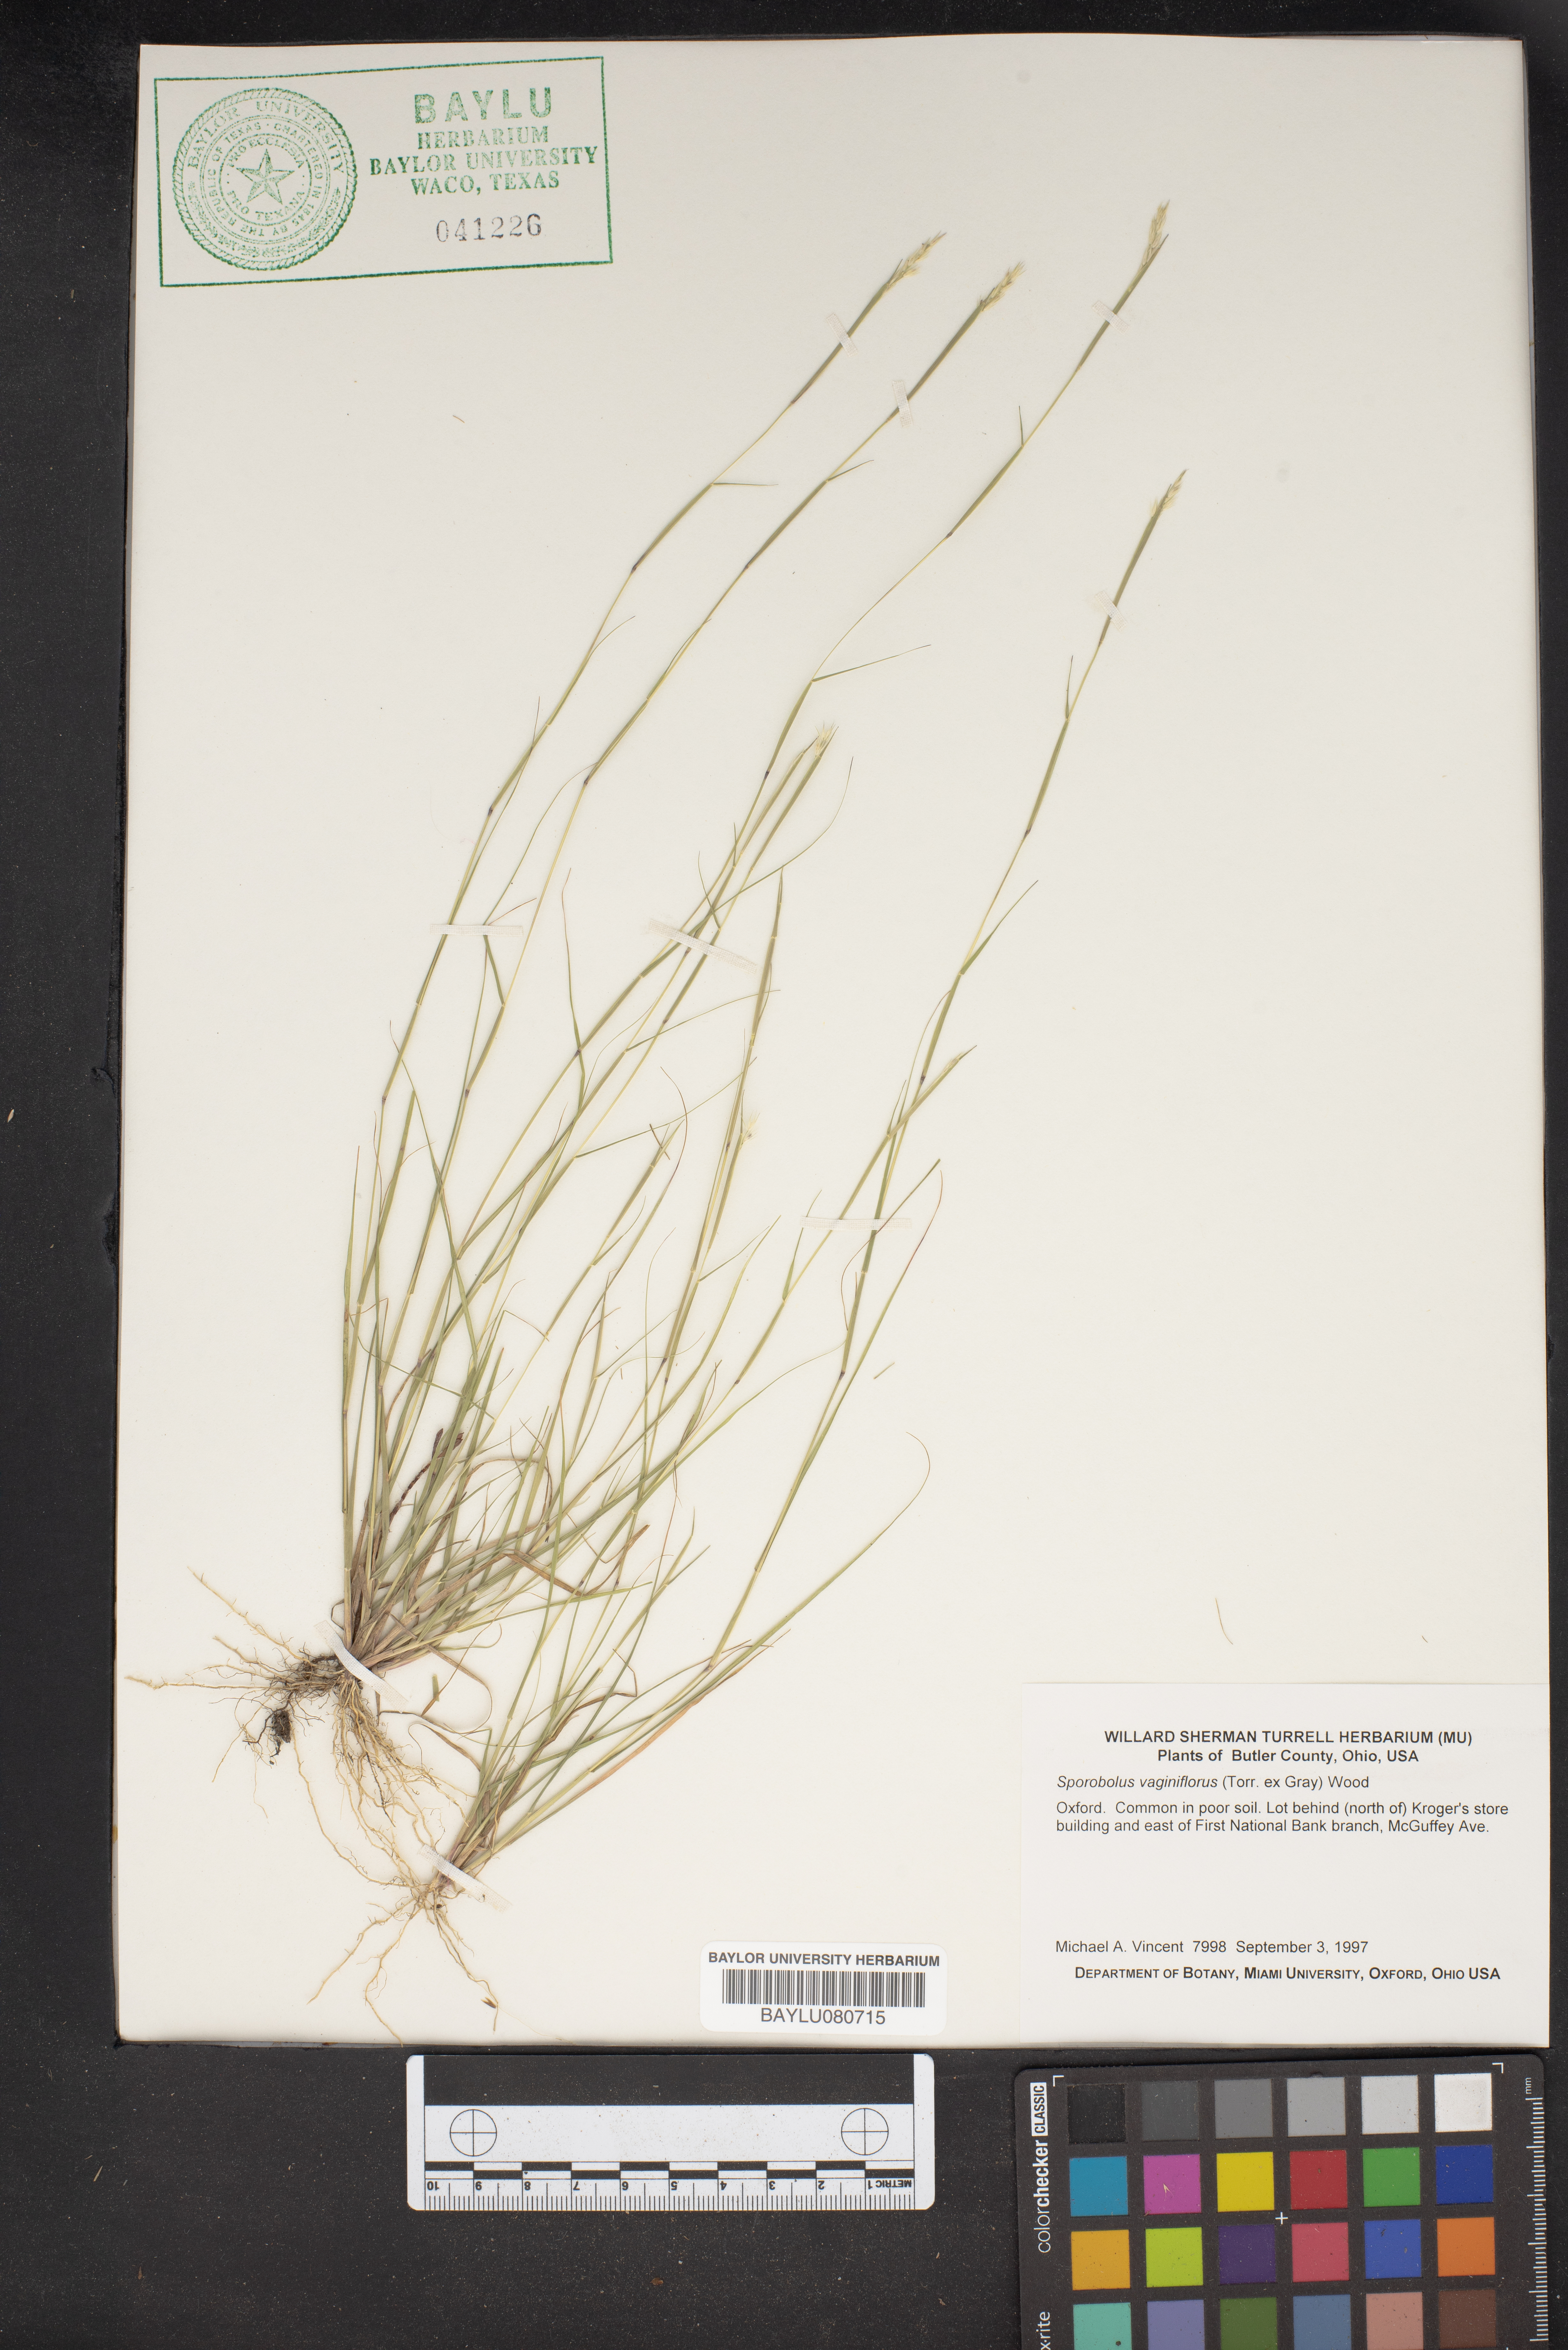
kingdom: Plantae
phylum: Tracheophyta
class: Liliopsida
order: Poales
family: Poaceae
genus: Sporobolus
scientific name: Sporobolus vaginiflorus
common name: Poverty dropseed
